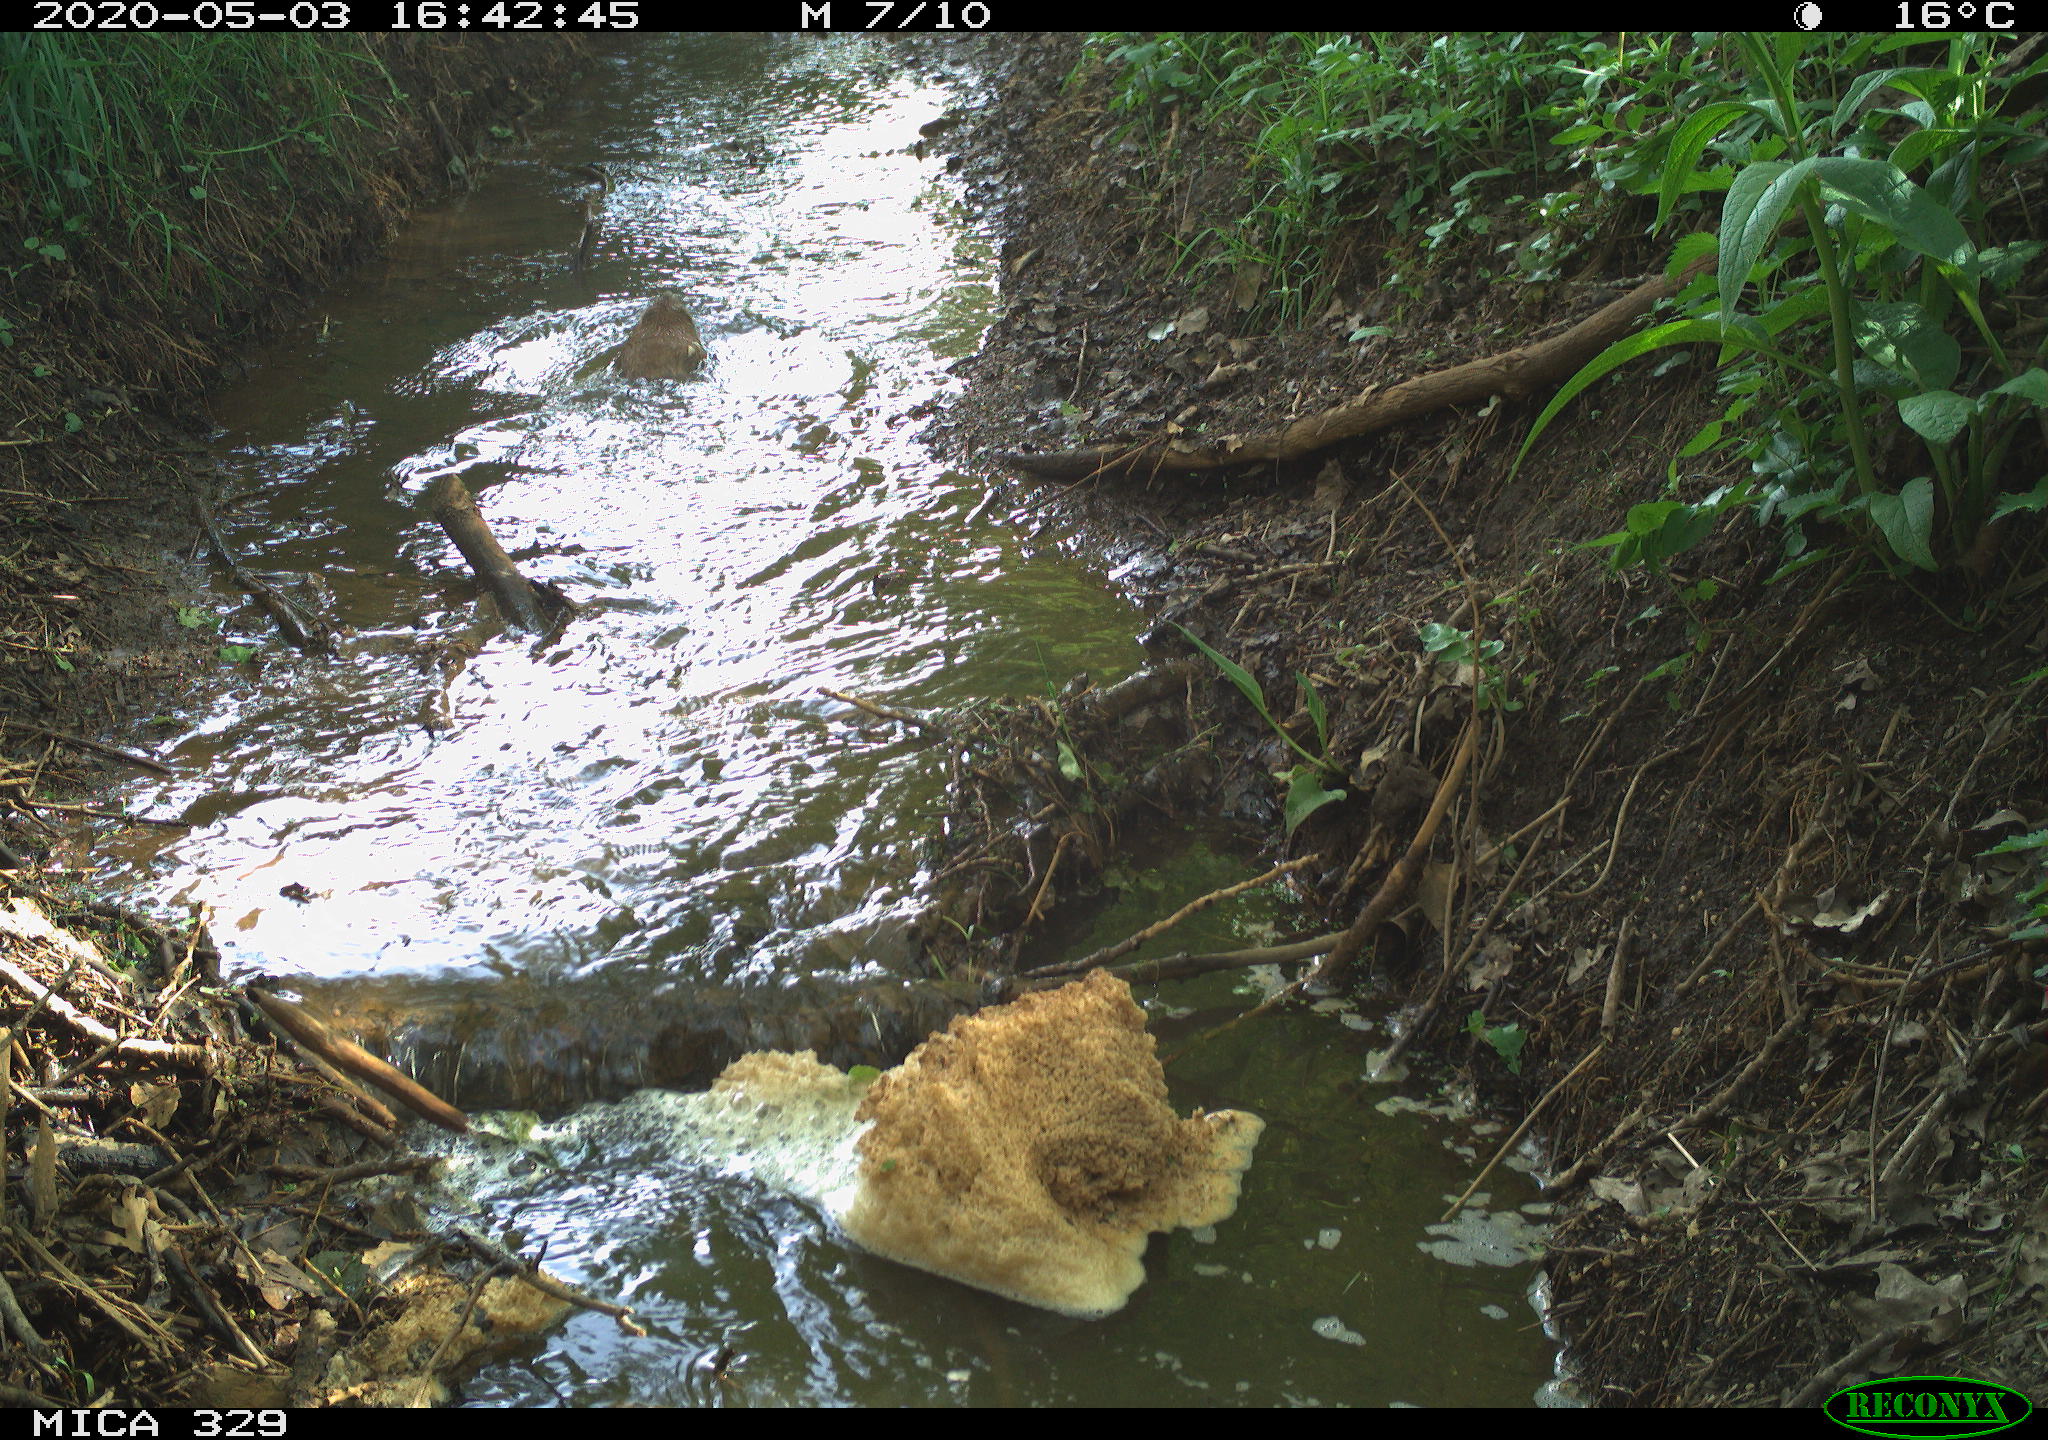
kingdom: Animalia
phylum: Chordata
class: Mammalia
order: Rodentia
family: Cricetidae
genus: Ondatra
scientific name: Ondatra zibethicus
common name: Muskrat
